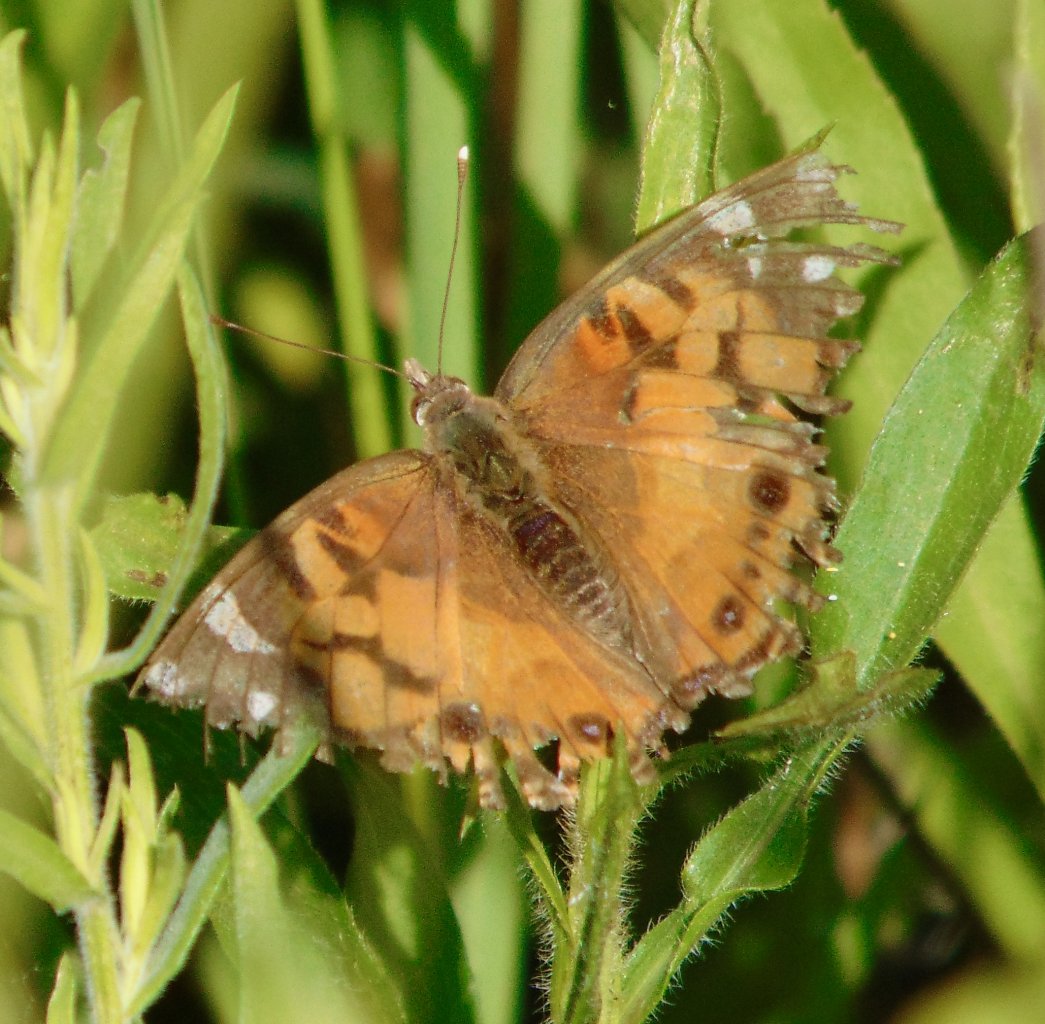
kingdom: Animalia
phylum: Arthropoda
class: Insecta
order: Lepidoptera
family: Nymphalidae
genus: Vanessa
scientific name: Vanessa virginiensis
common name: American Lady
